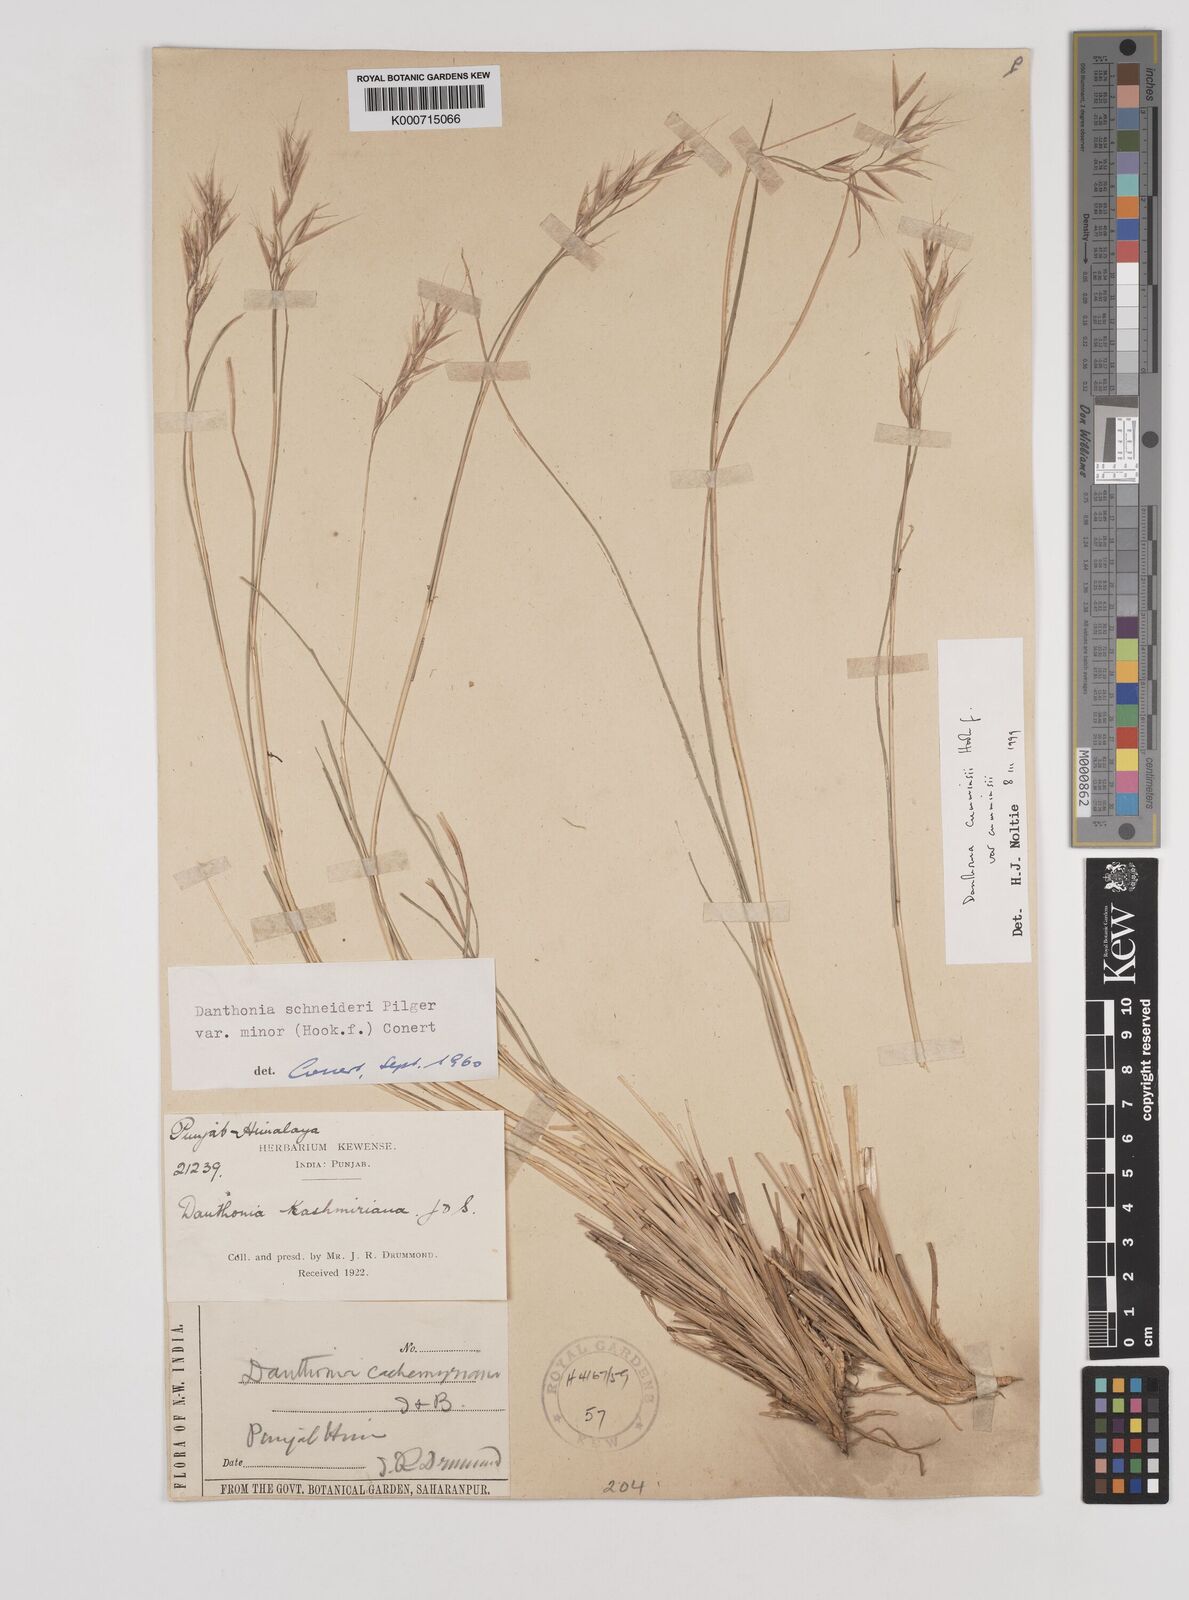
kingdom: Plantae
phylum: Tracheophyta
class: Liliopsida
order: Poales
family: Poaceae
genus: Rytidosperma
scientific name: Rytidosperma
